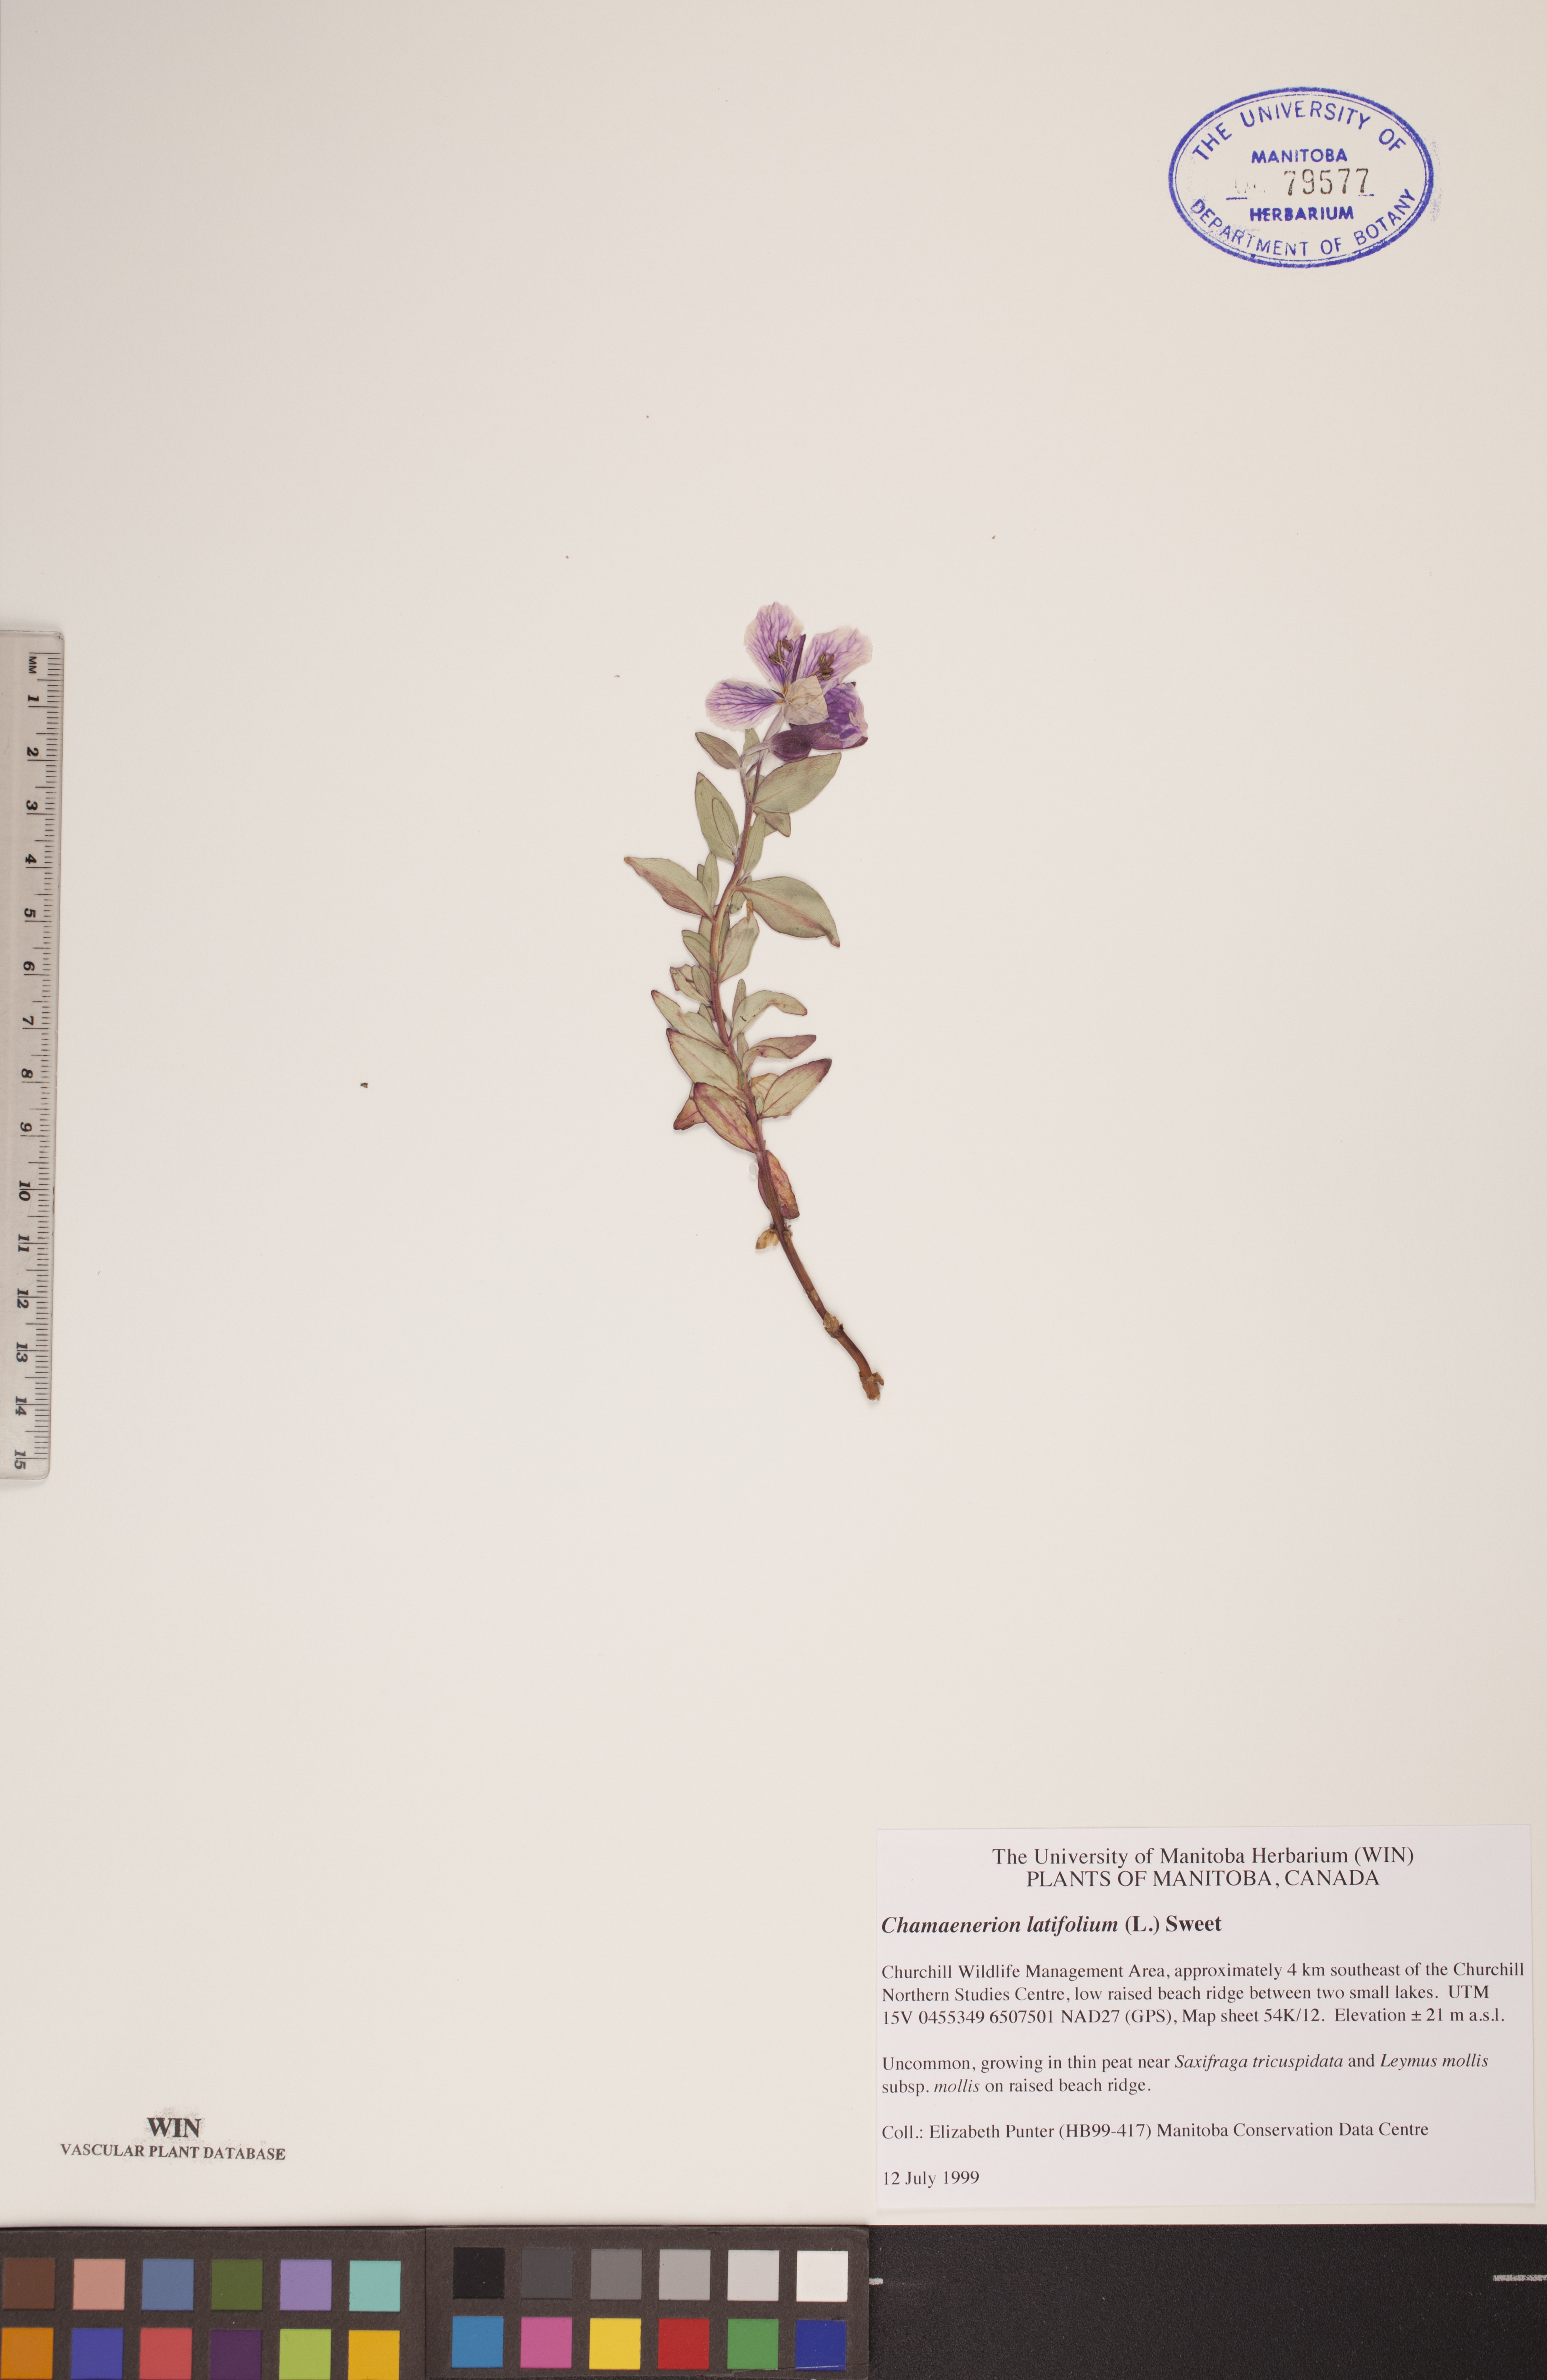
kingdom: Plantae
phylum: Tracheophyta
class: Magnoliopsida
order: Myrtales
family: Onagraceae
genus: Chamaenerion
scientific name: Chamaenerion latifolium
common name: Dwarf fireweed
